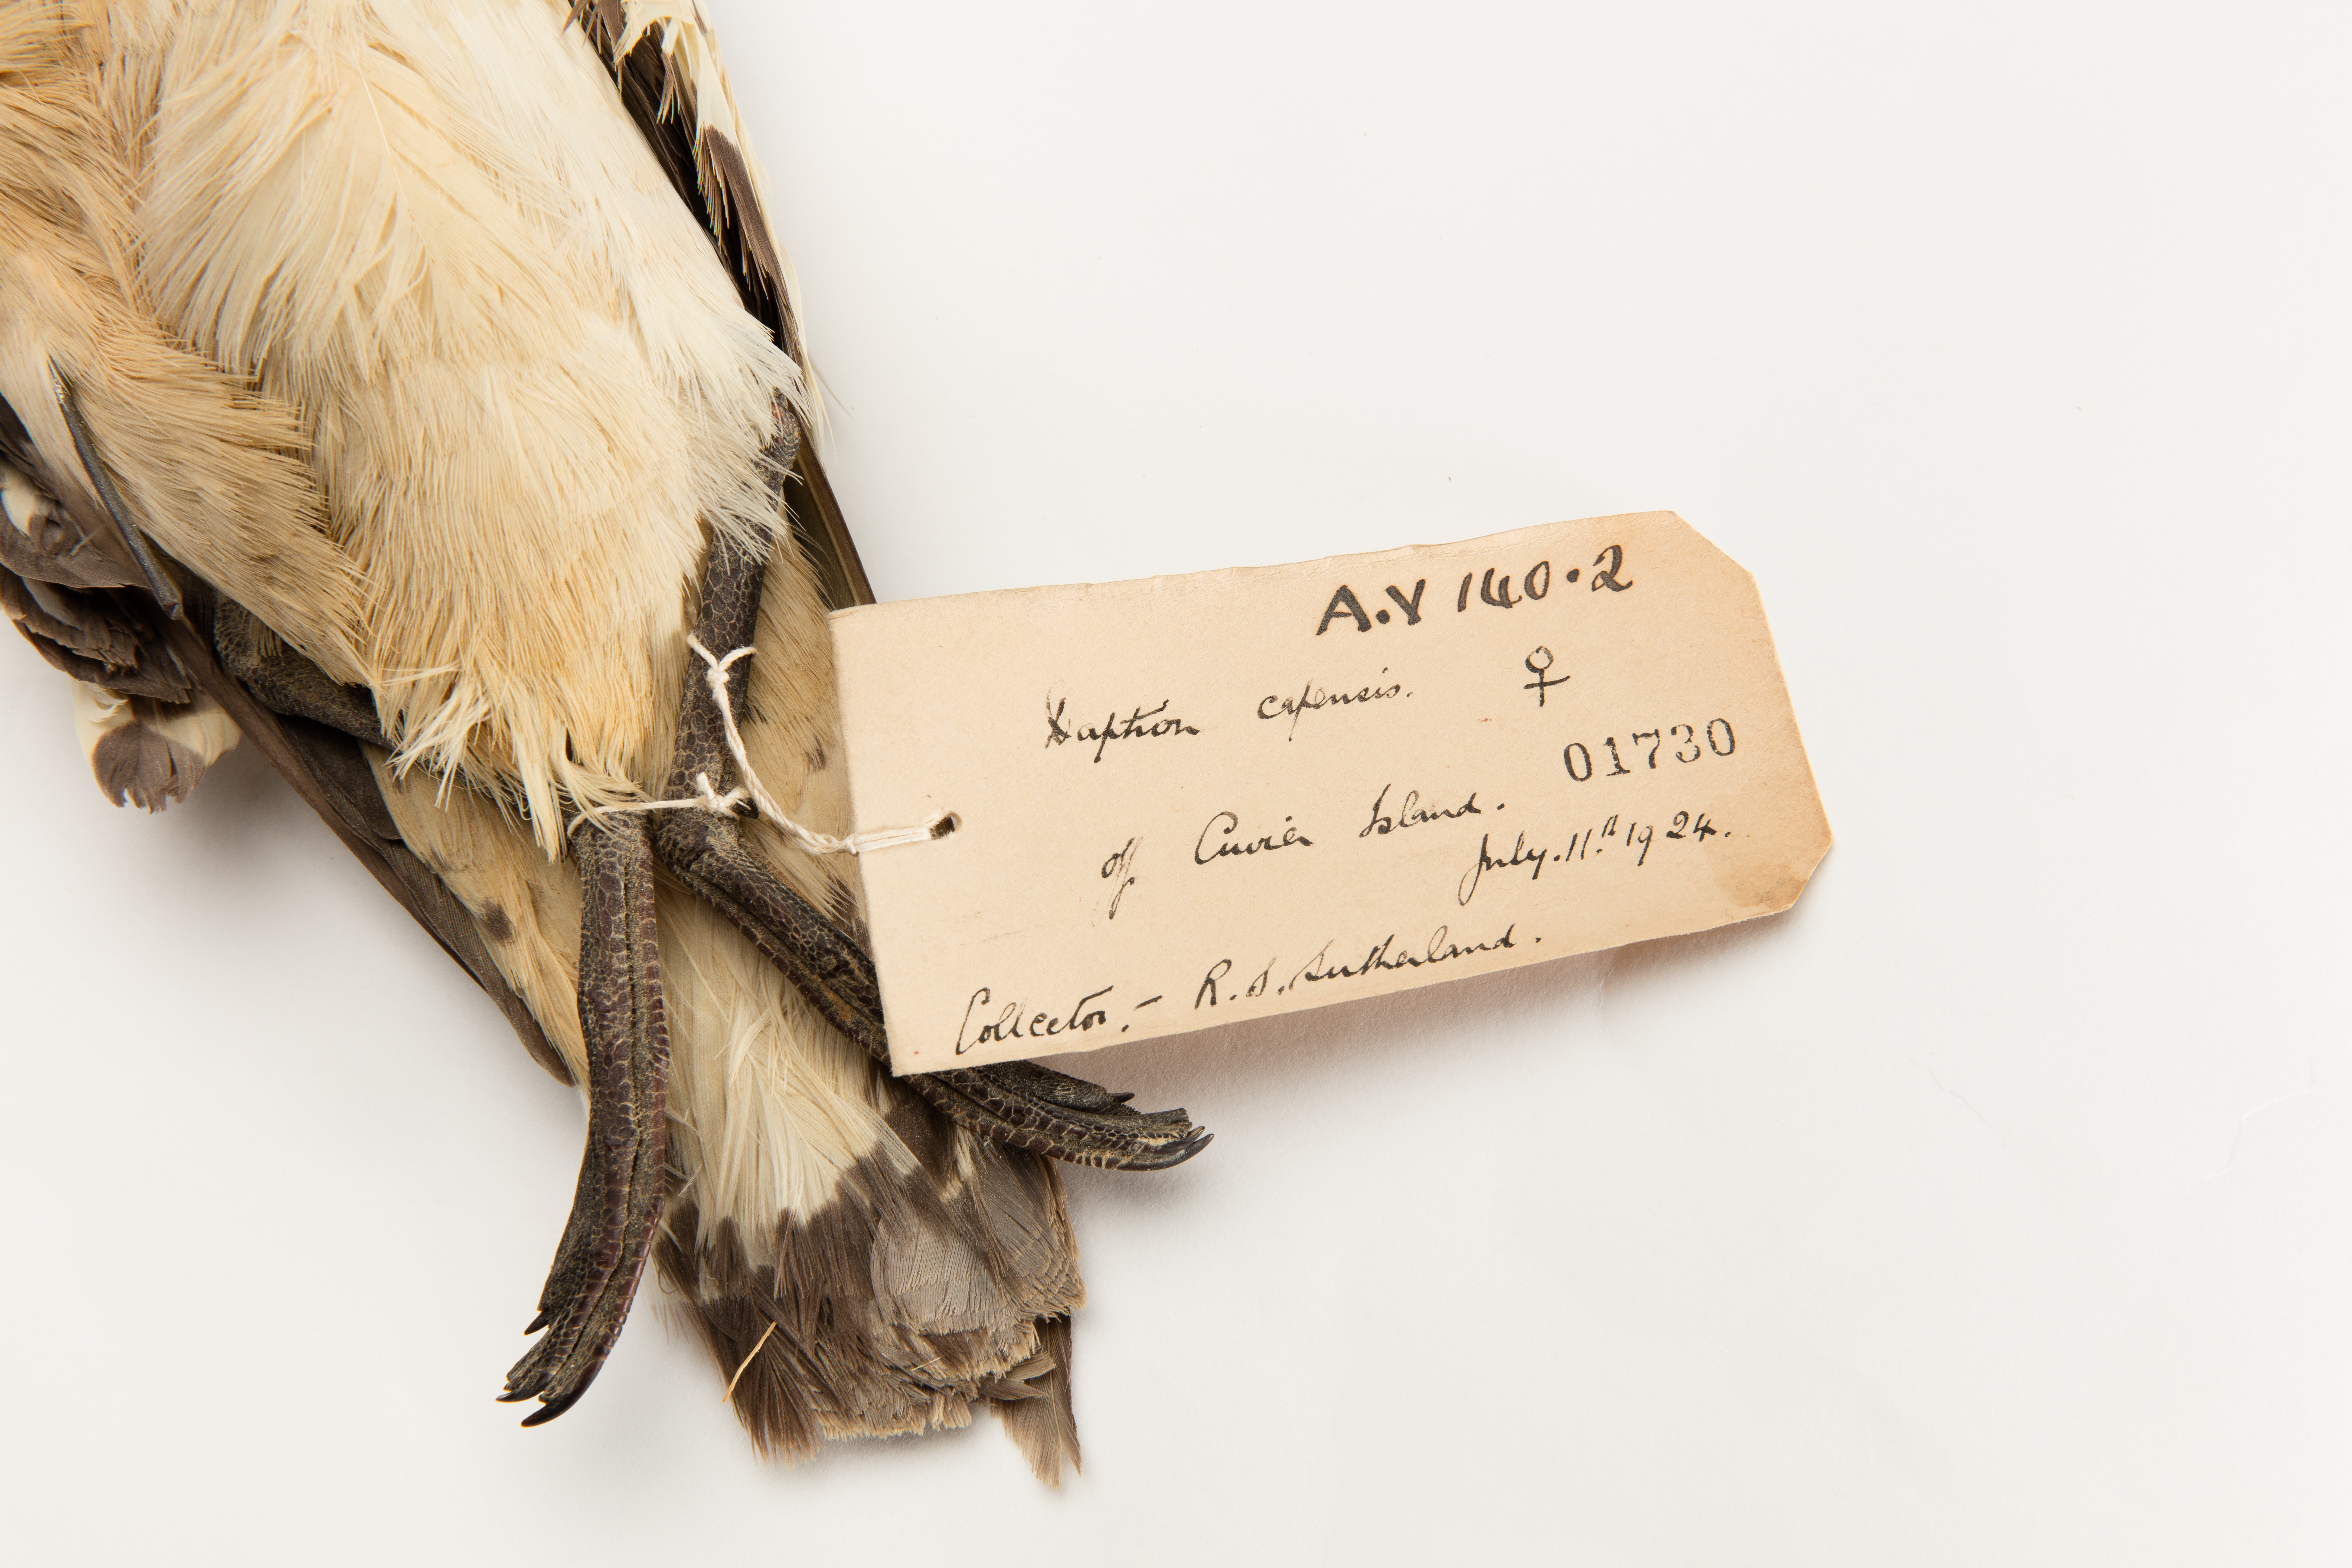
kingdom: Animalia
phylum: Chordata
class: Aves
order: Procellariiformes
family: Procellariidae
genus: Daption
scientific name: Daption capense
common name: Cape petrel
